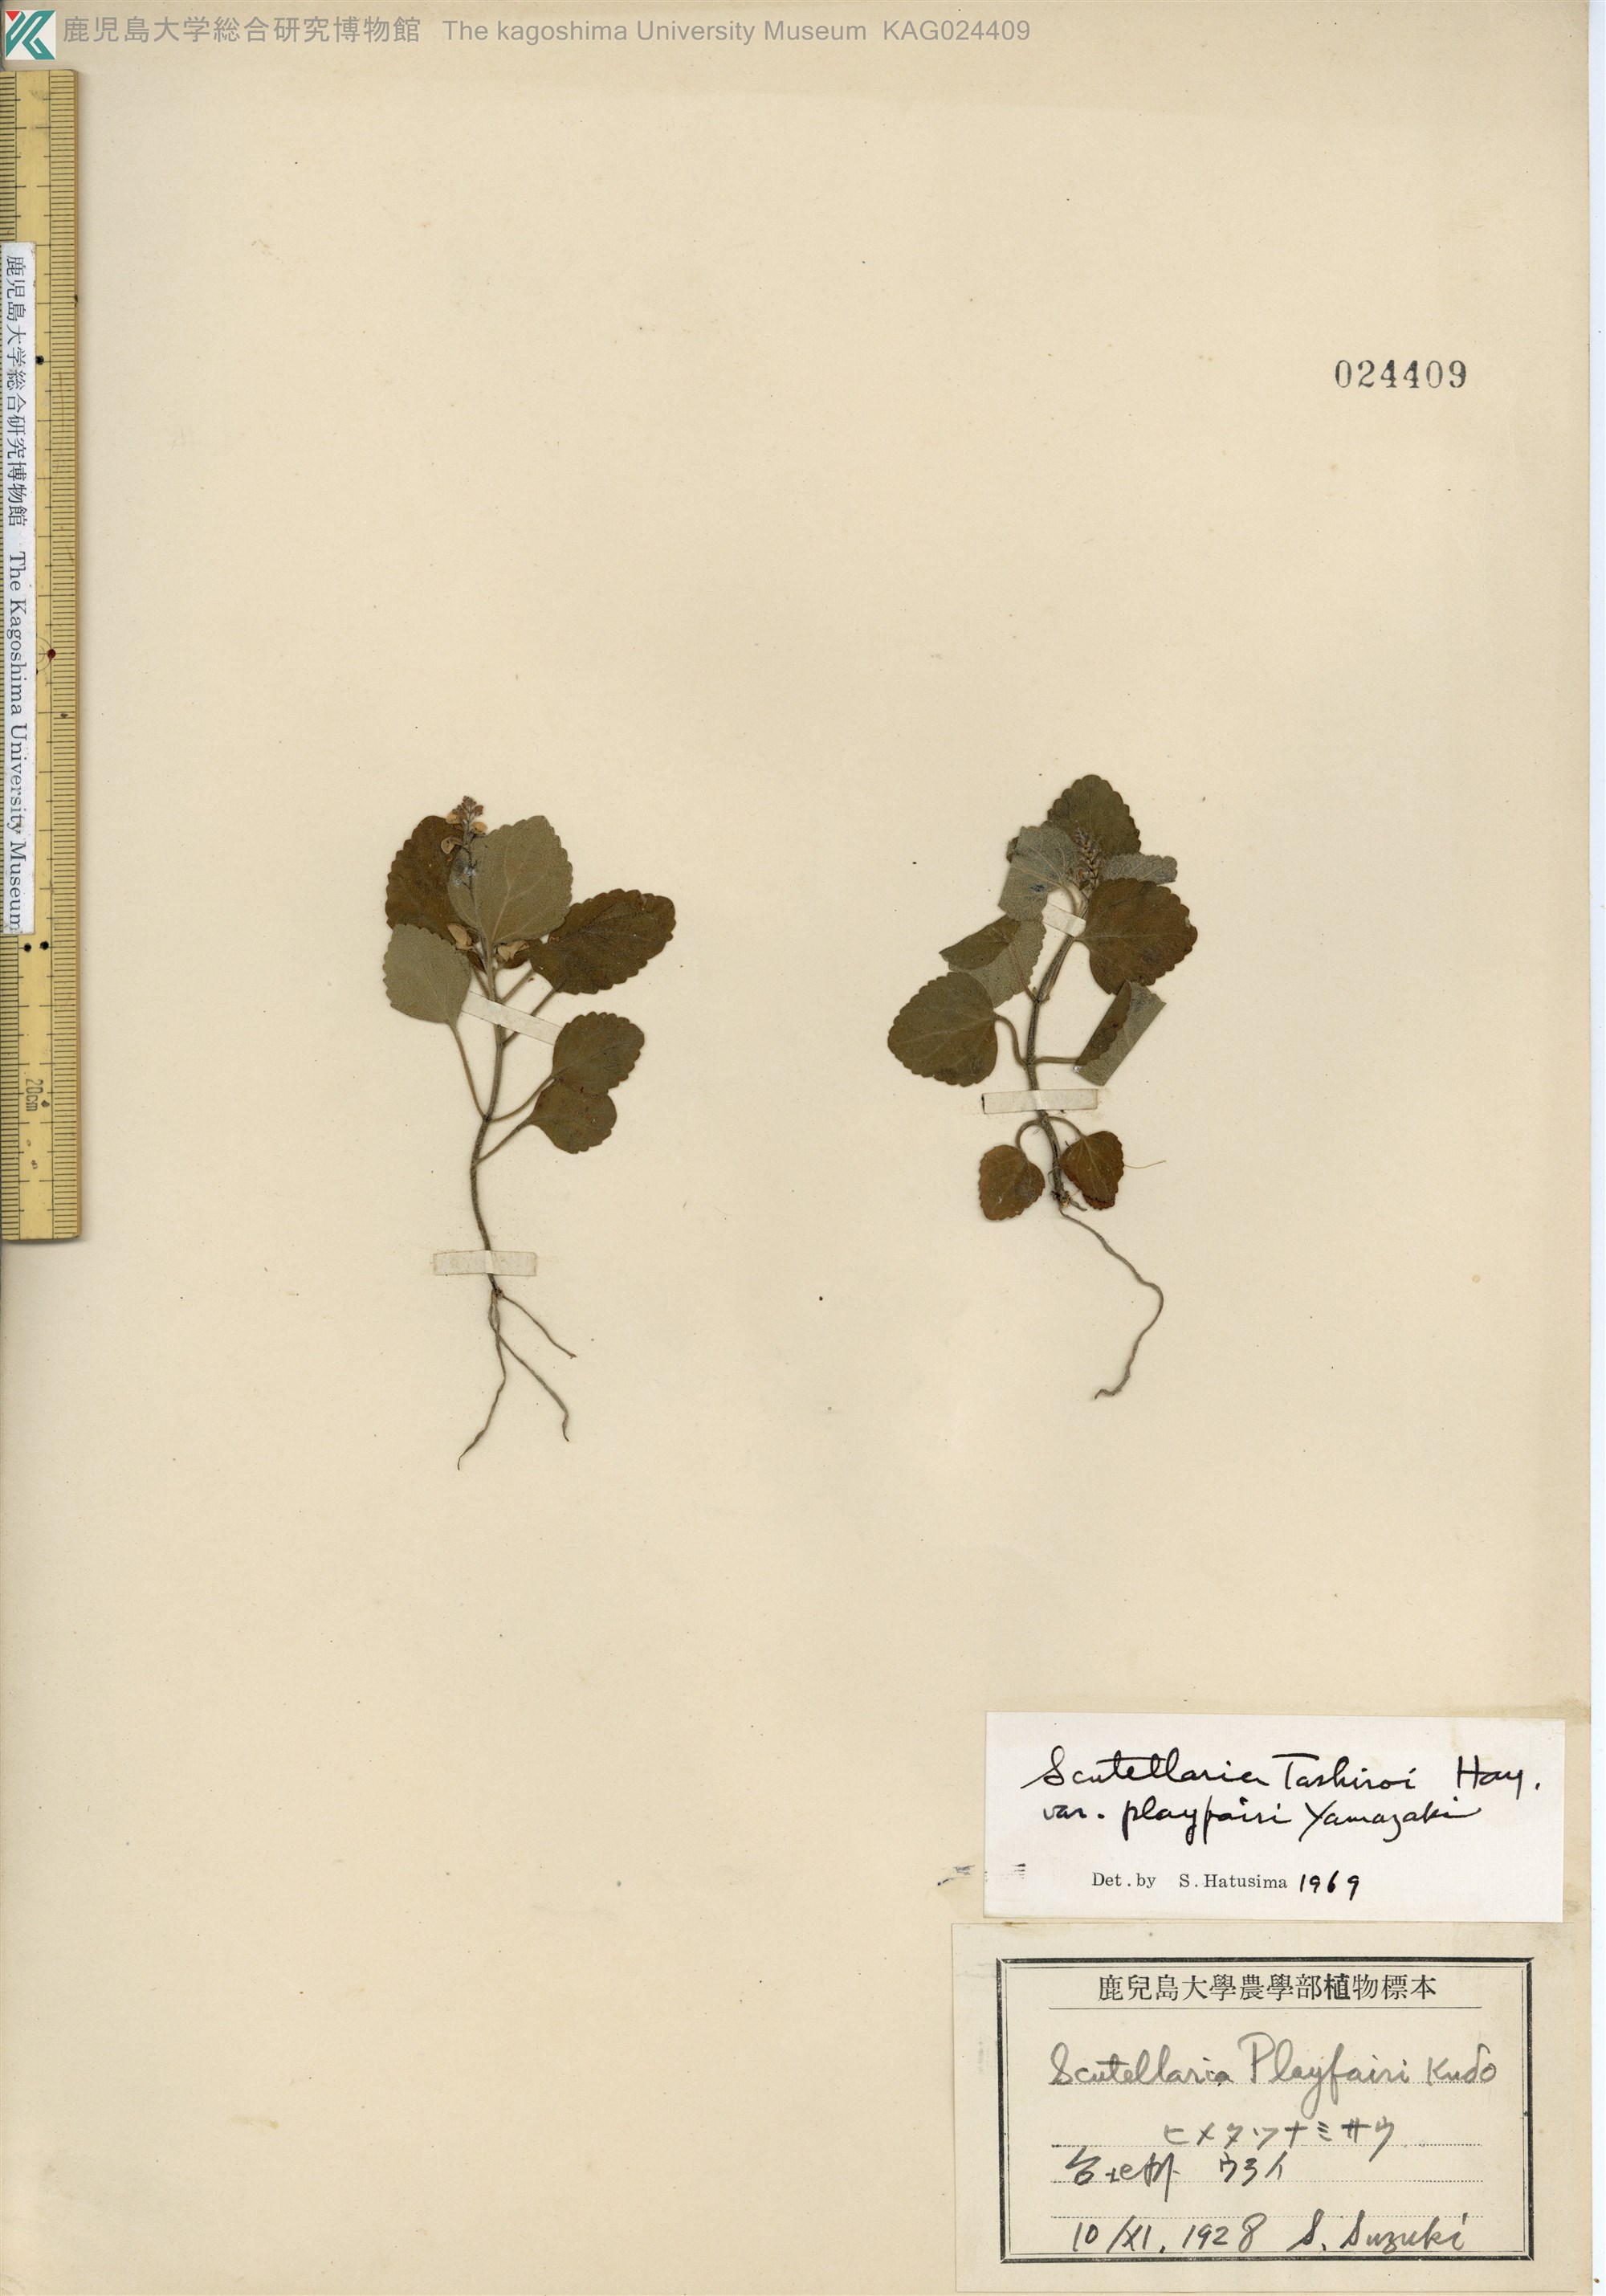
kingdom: Plantae
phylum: Tracheophyta
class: Magnoliopsida
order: Lamiales
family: Lamiaceae
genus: Scutellaria
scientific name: Scutellaria indica
